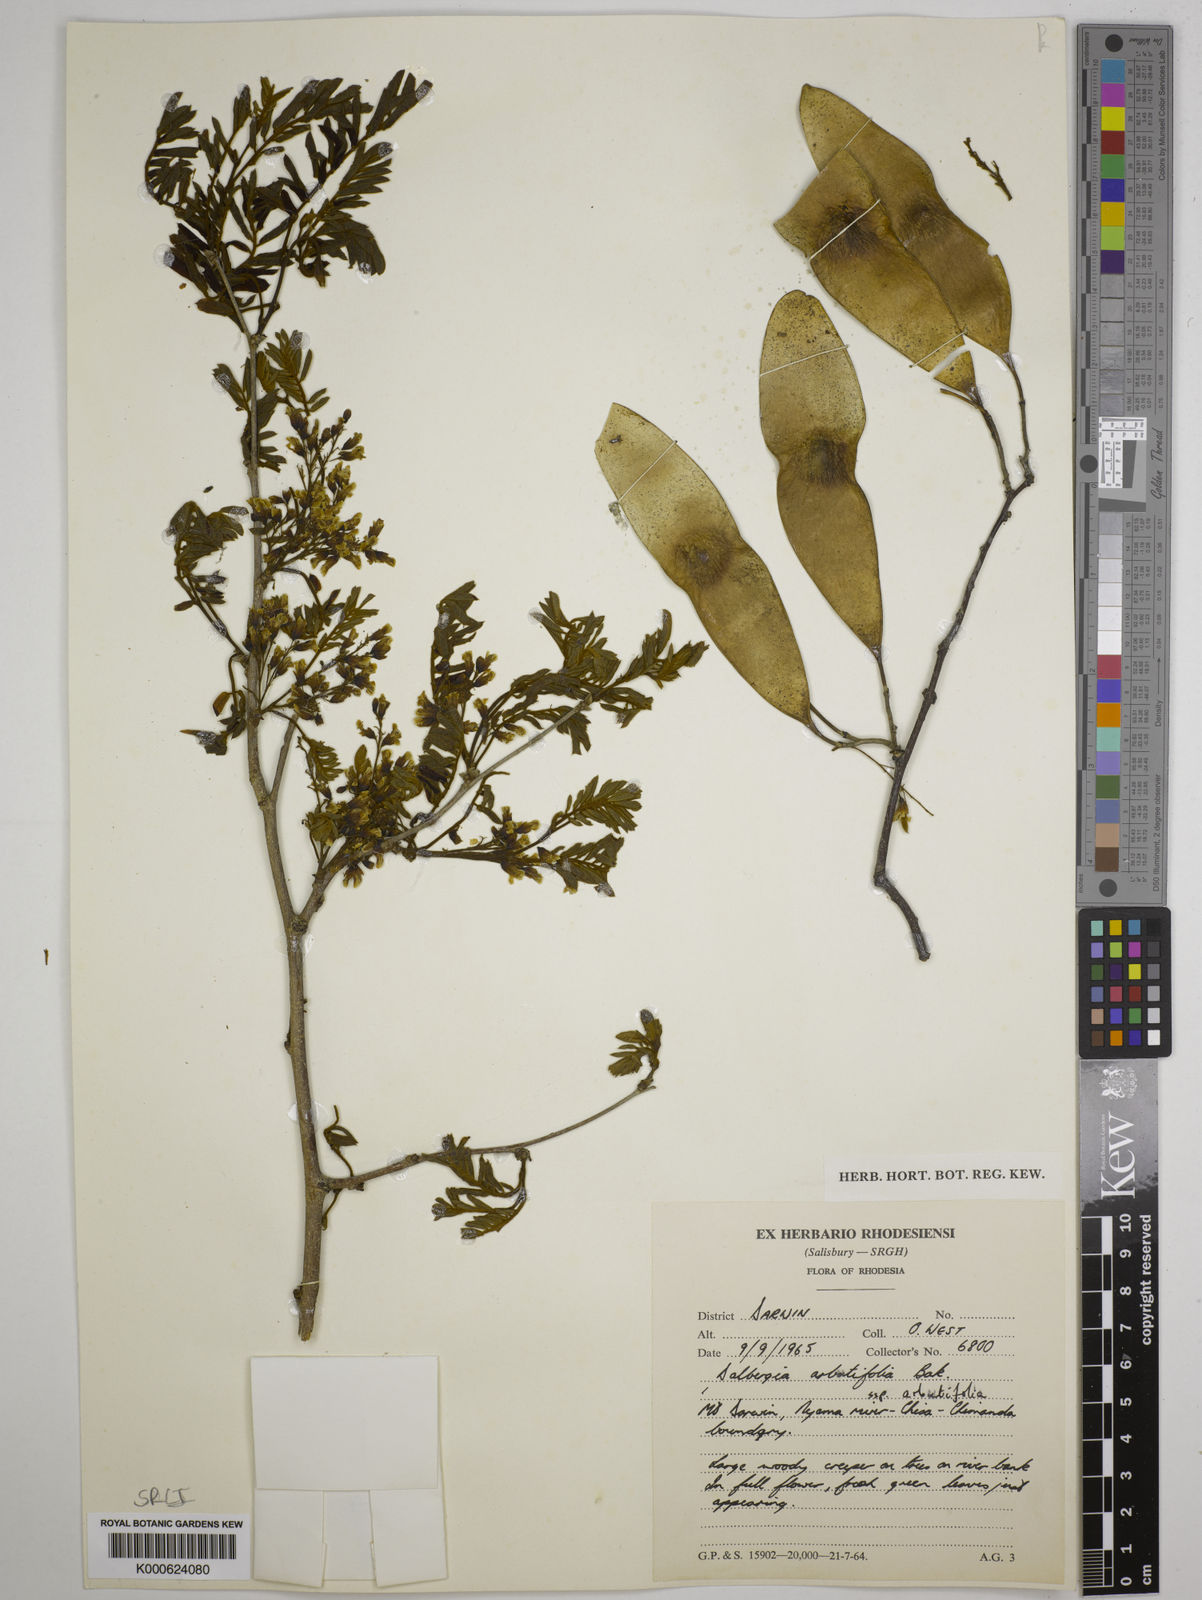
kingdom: Plantae
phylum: Tracheophyta
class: Magnoliopsida
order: Fabales
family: Fabaceae
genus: Dalbergia
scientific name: Dalbergia
